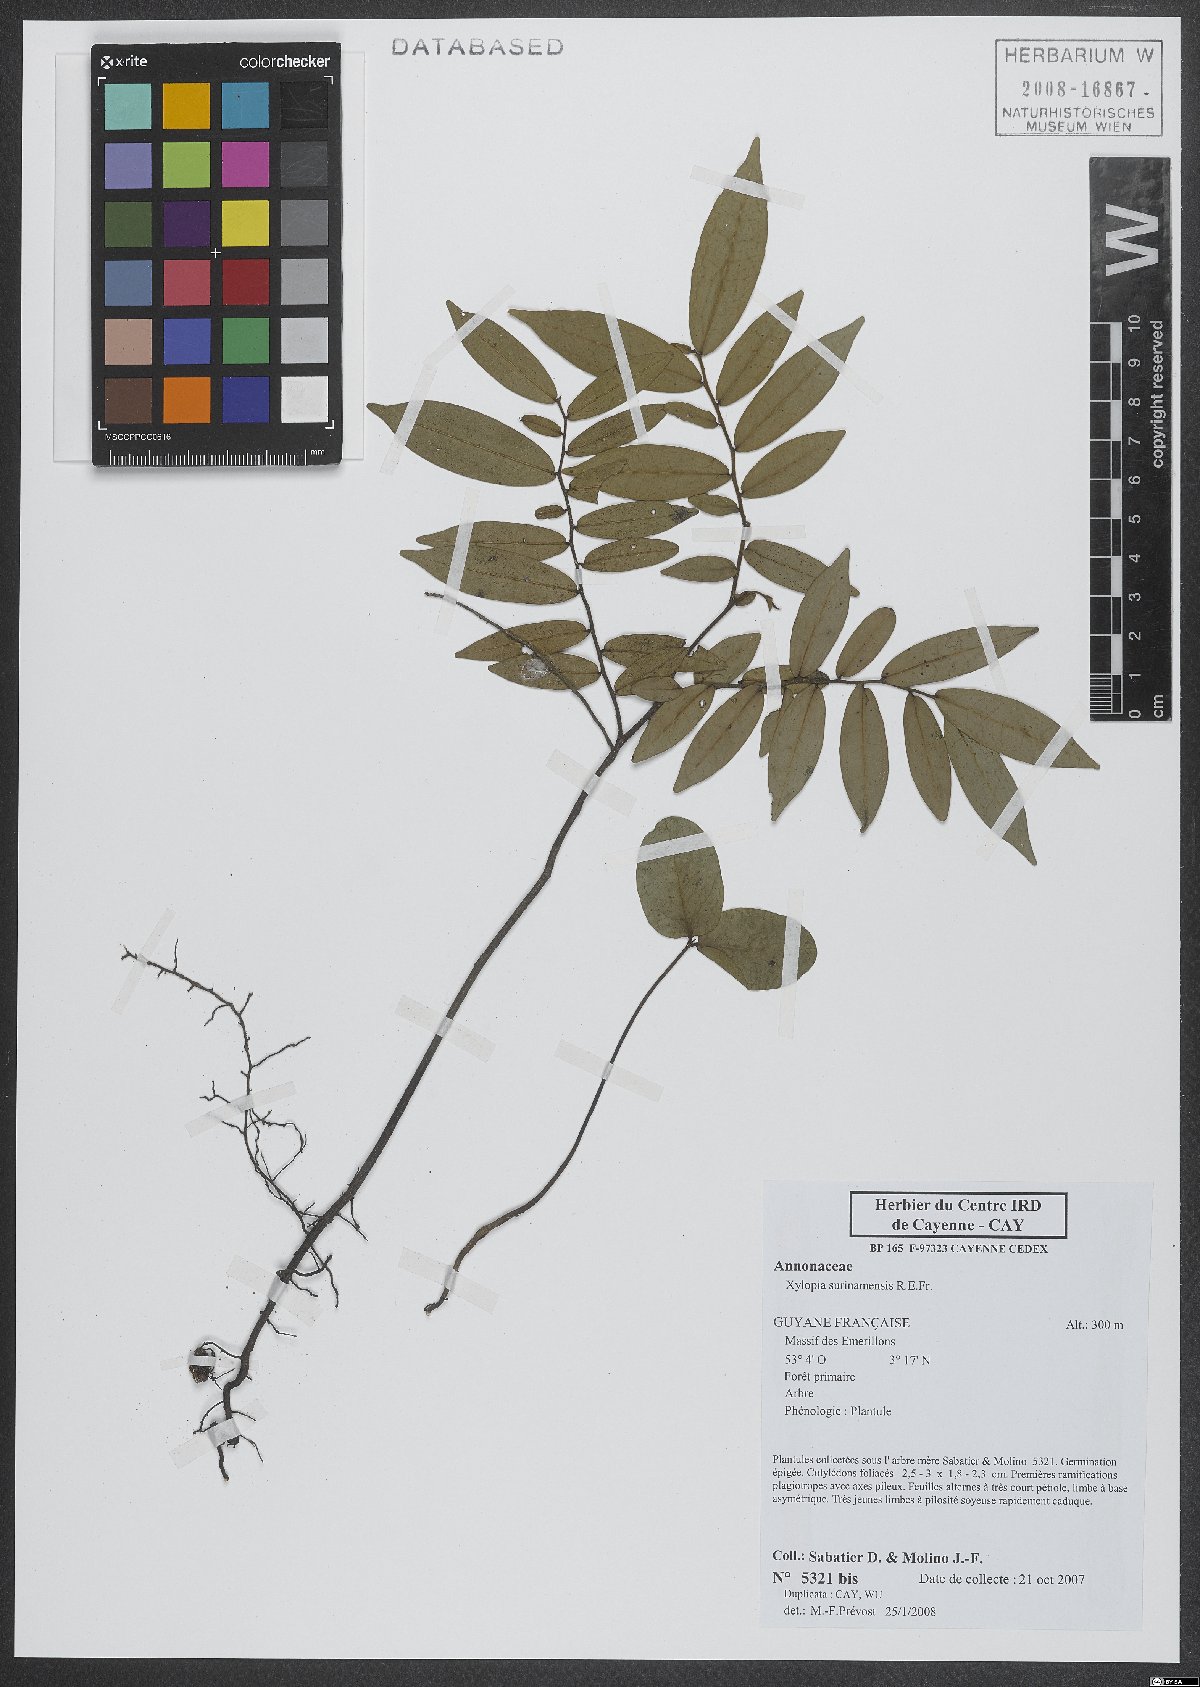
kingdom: Plantae
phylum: Tracheophyta
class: Magnoliopsida
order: Magnoliales
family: Annonaceae
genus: Xylopia
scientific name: Xylopia surinamensis
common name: Black wepopi
